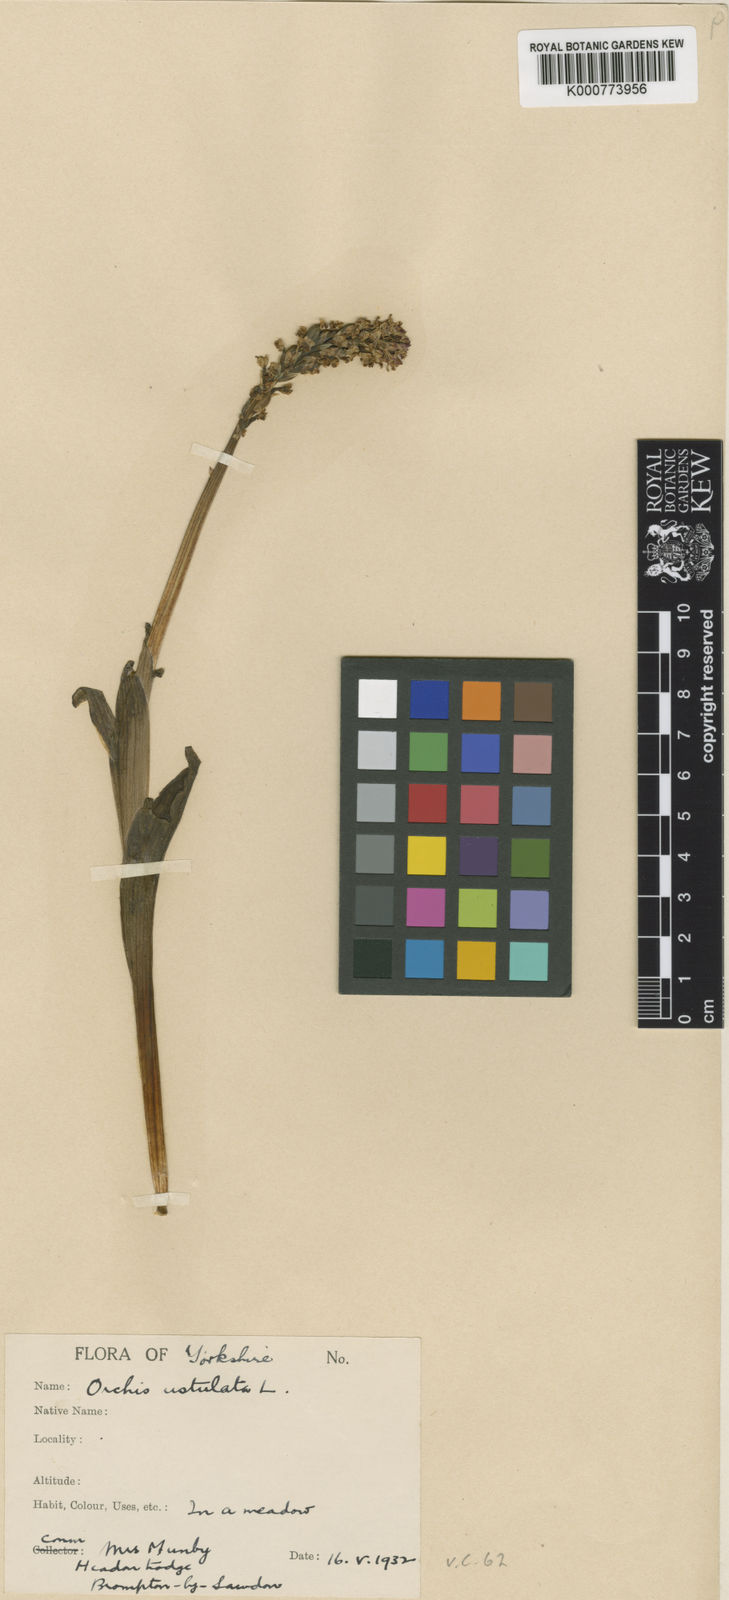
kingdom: Plantae
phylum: Tracheophyta
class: Liliopsida
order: Asparagales
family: Orchidaceae
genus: Neotinea
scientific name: Neotinea ustulata
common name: Burnt orchid
